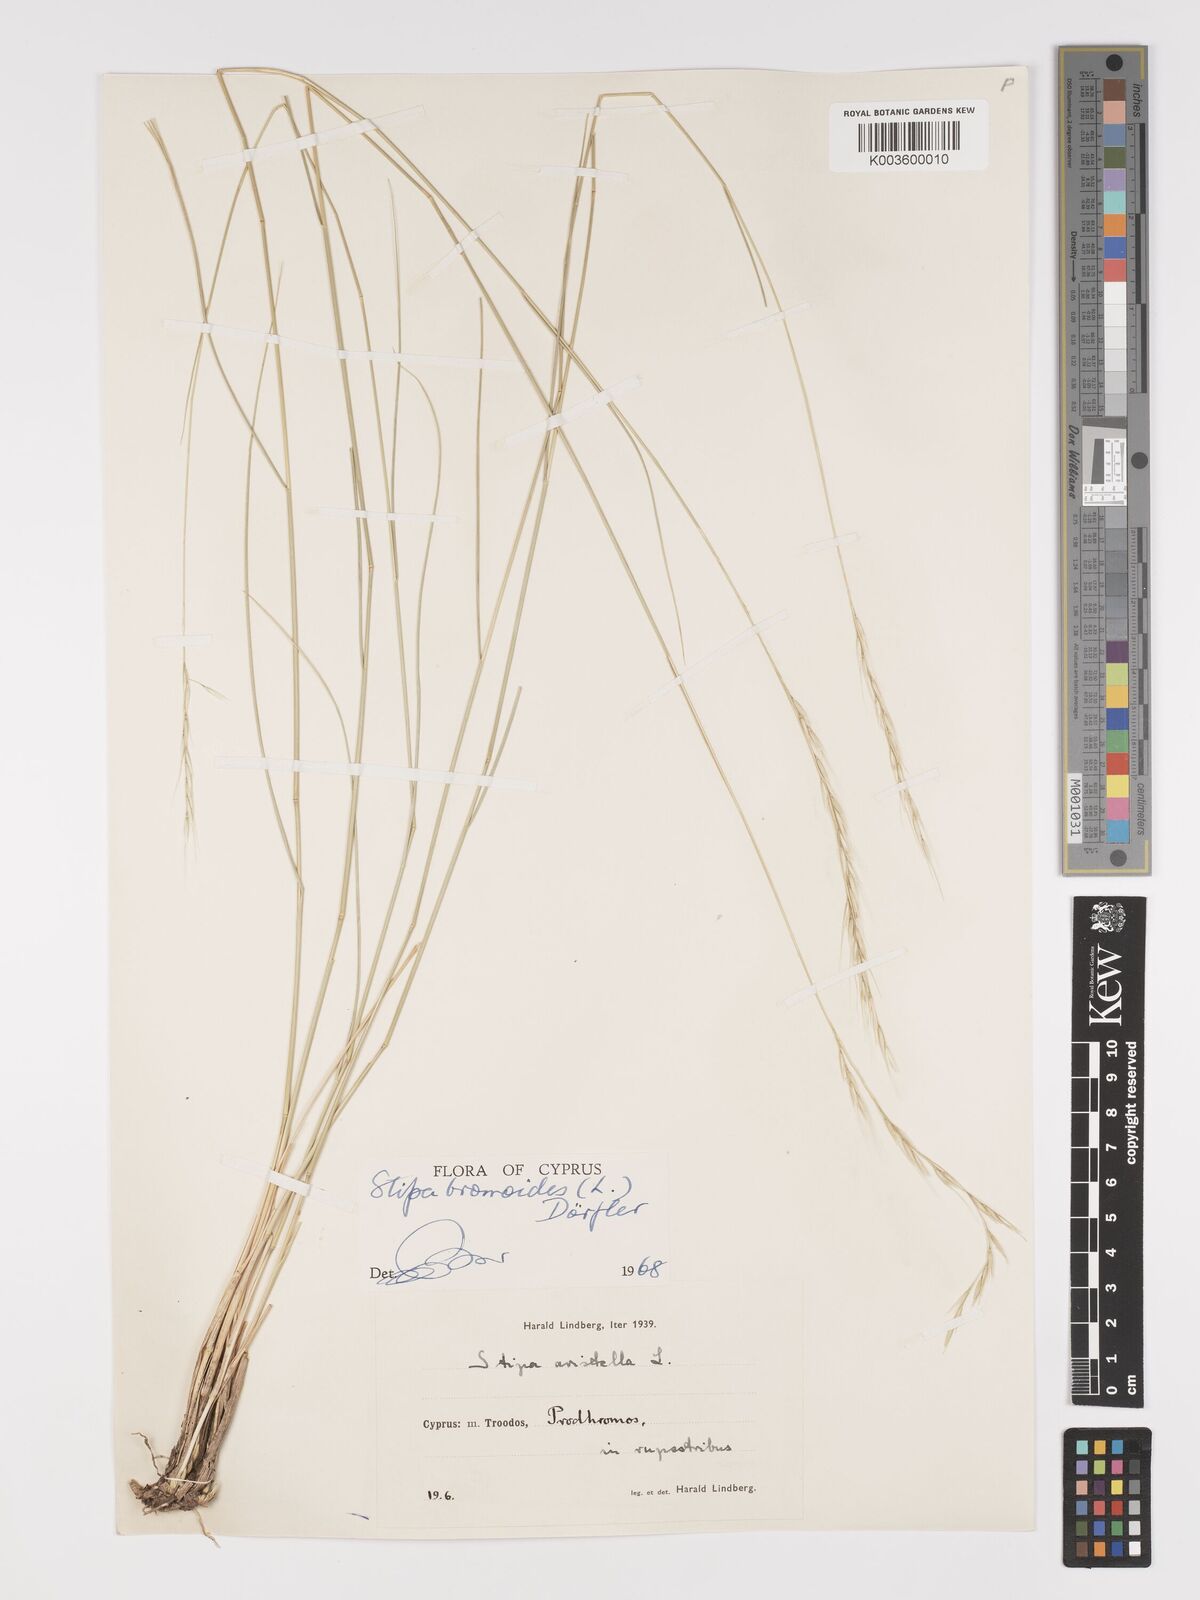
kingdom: Plantae
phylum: Tracheophyta
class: Liliopsida
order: Poales
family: Poaceae
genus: Achnatherum
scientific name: Achnatherum bromoides
